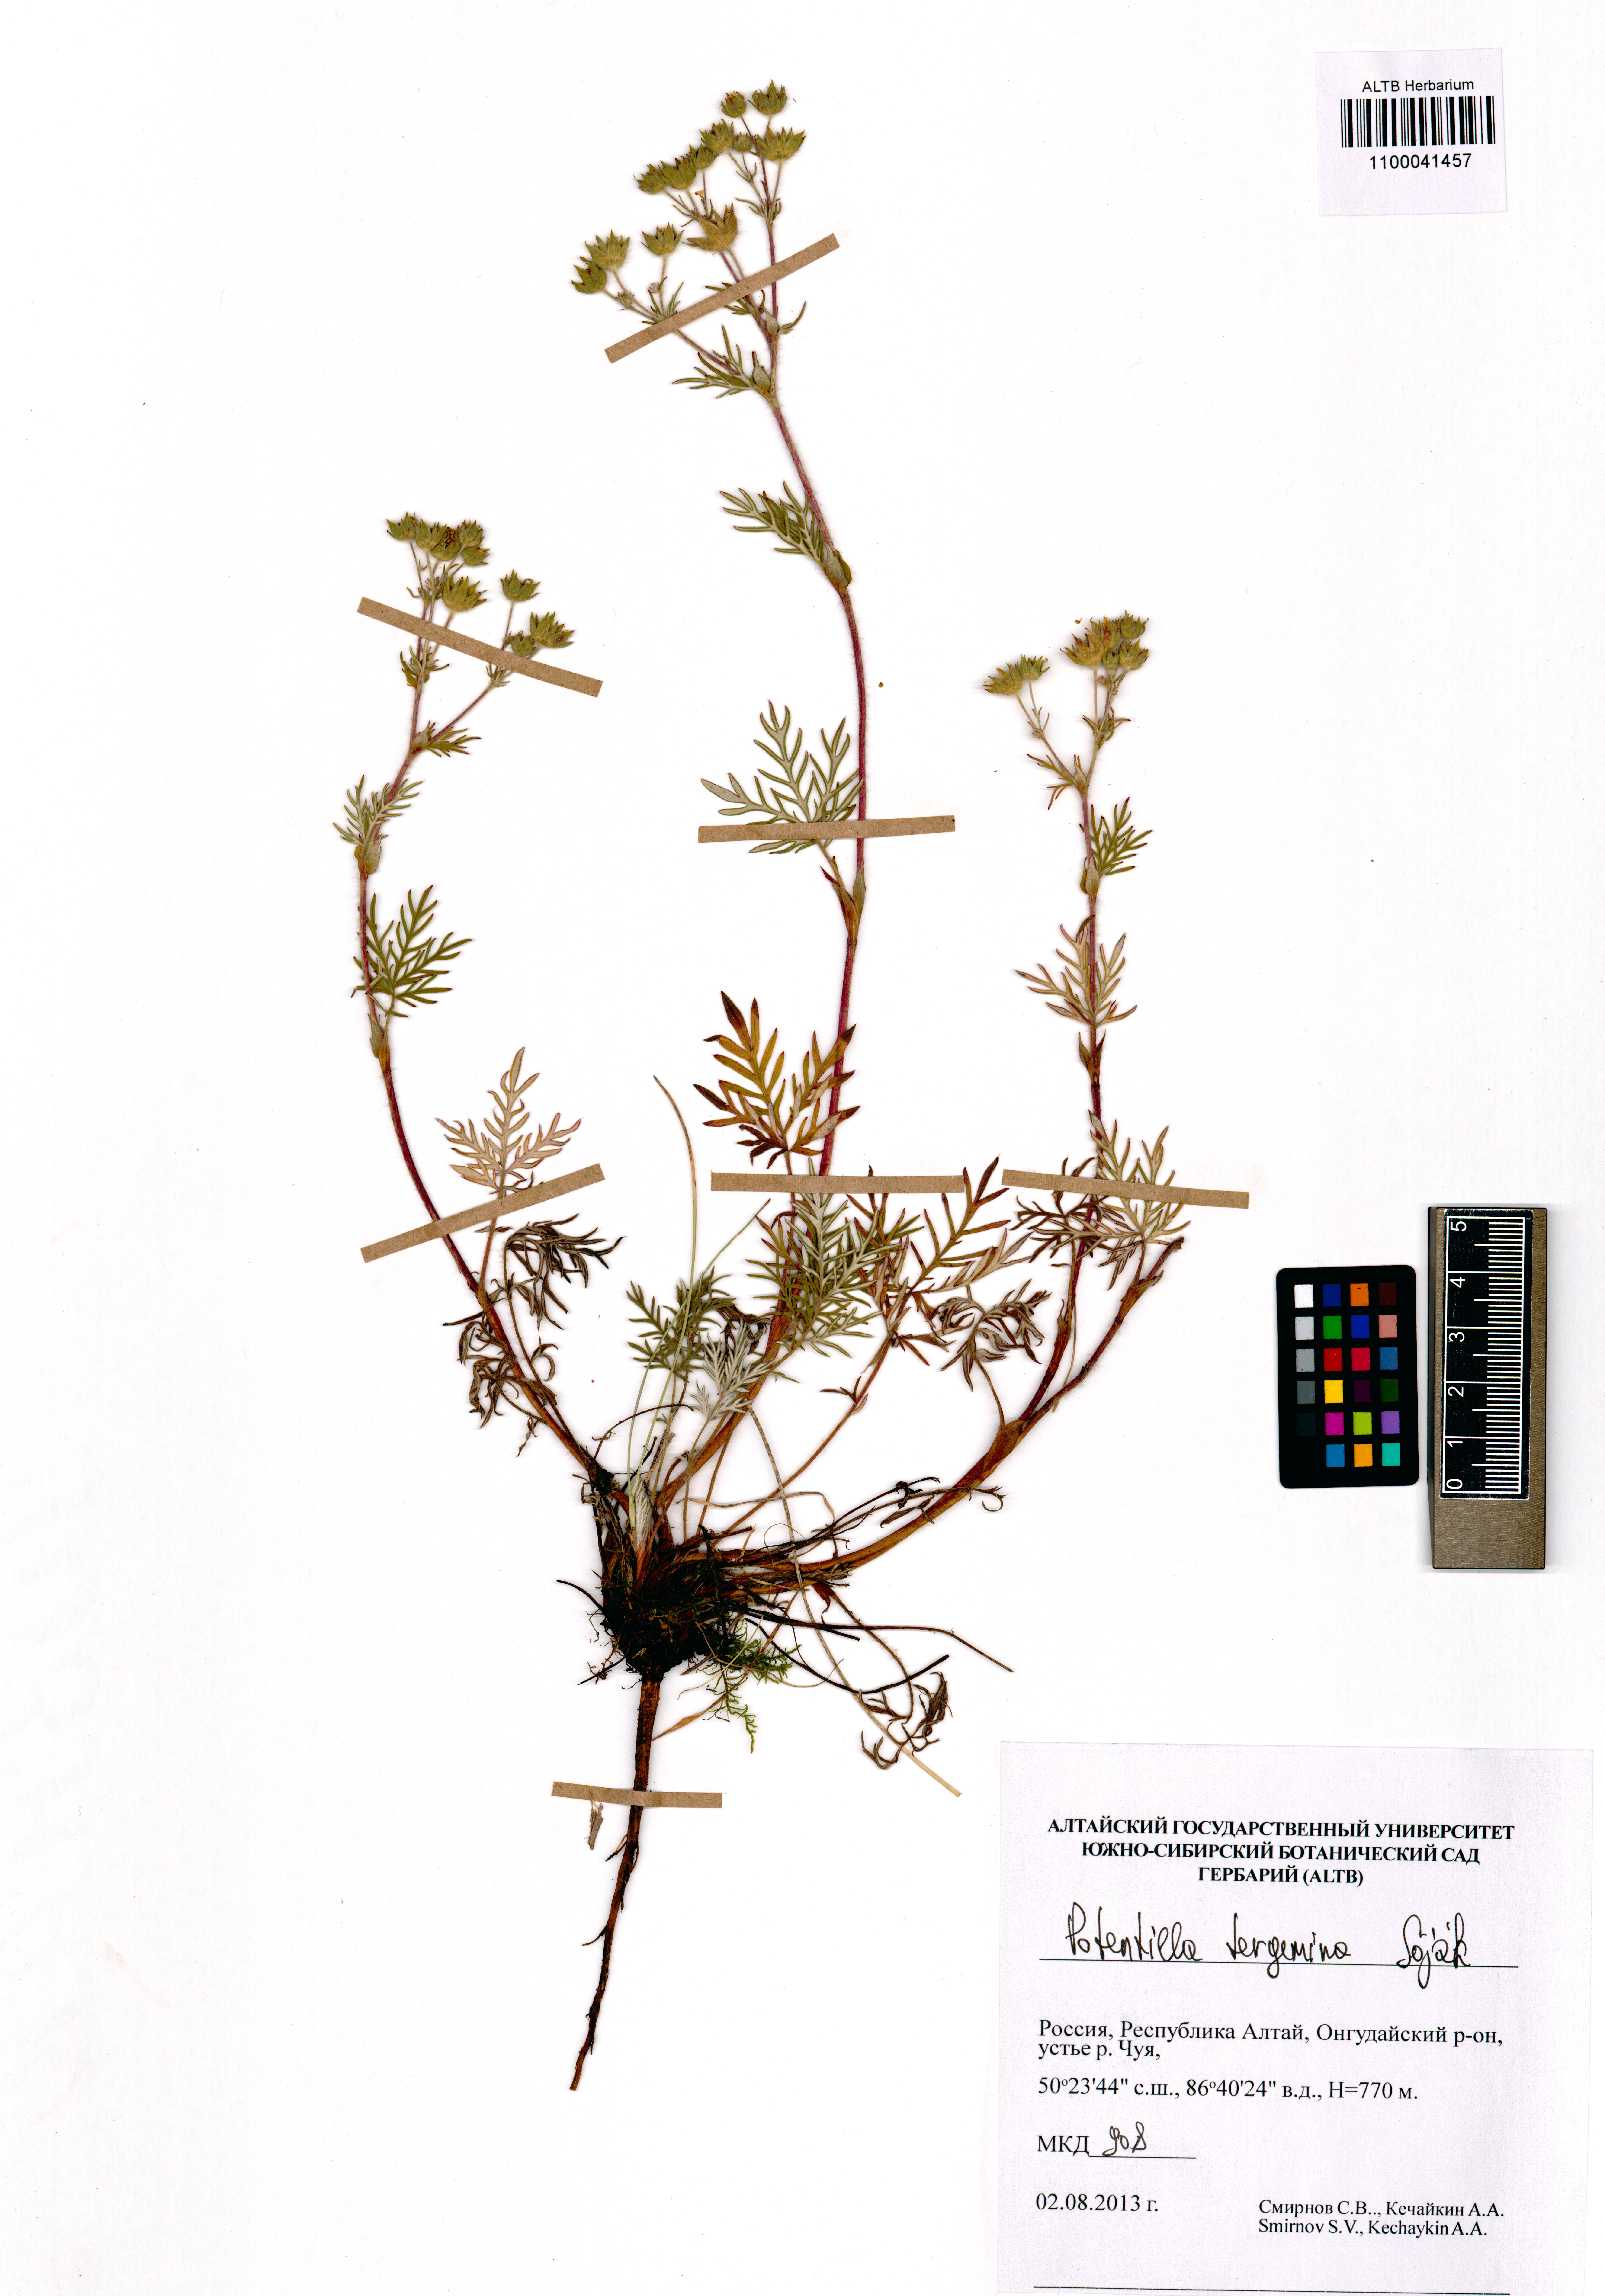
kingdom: Plantae
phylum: Tracheophyta
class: Magnoliopsida
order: Rosales
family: Rosaceae
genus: Potentilla
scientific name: Potentilla tergemina
